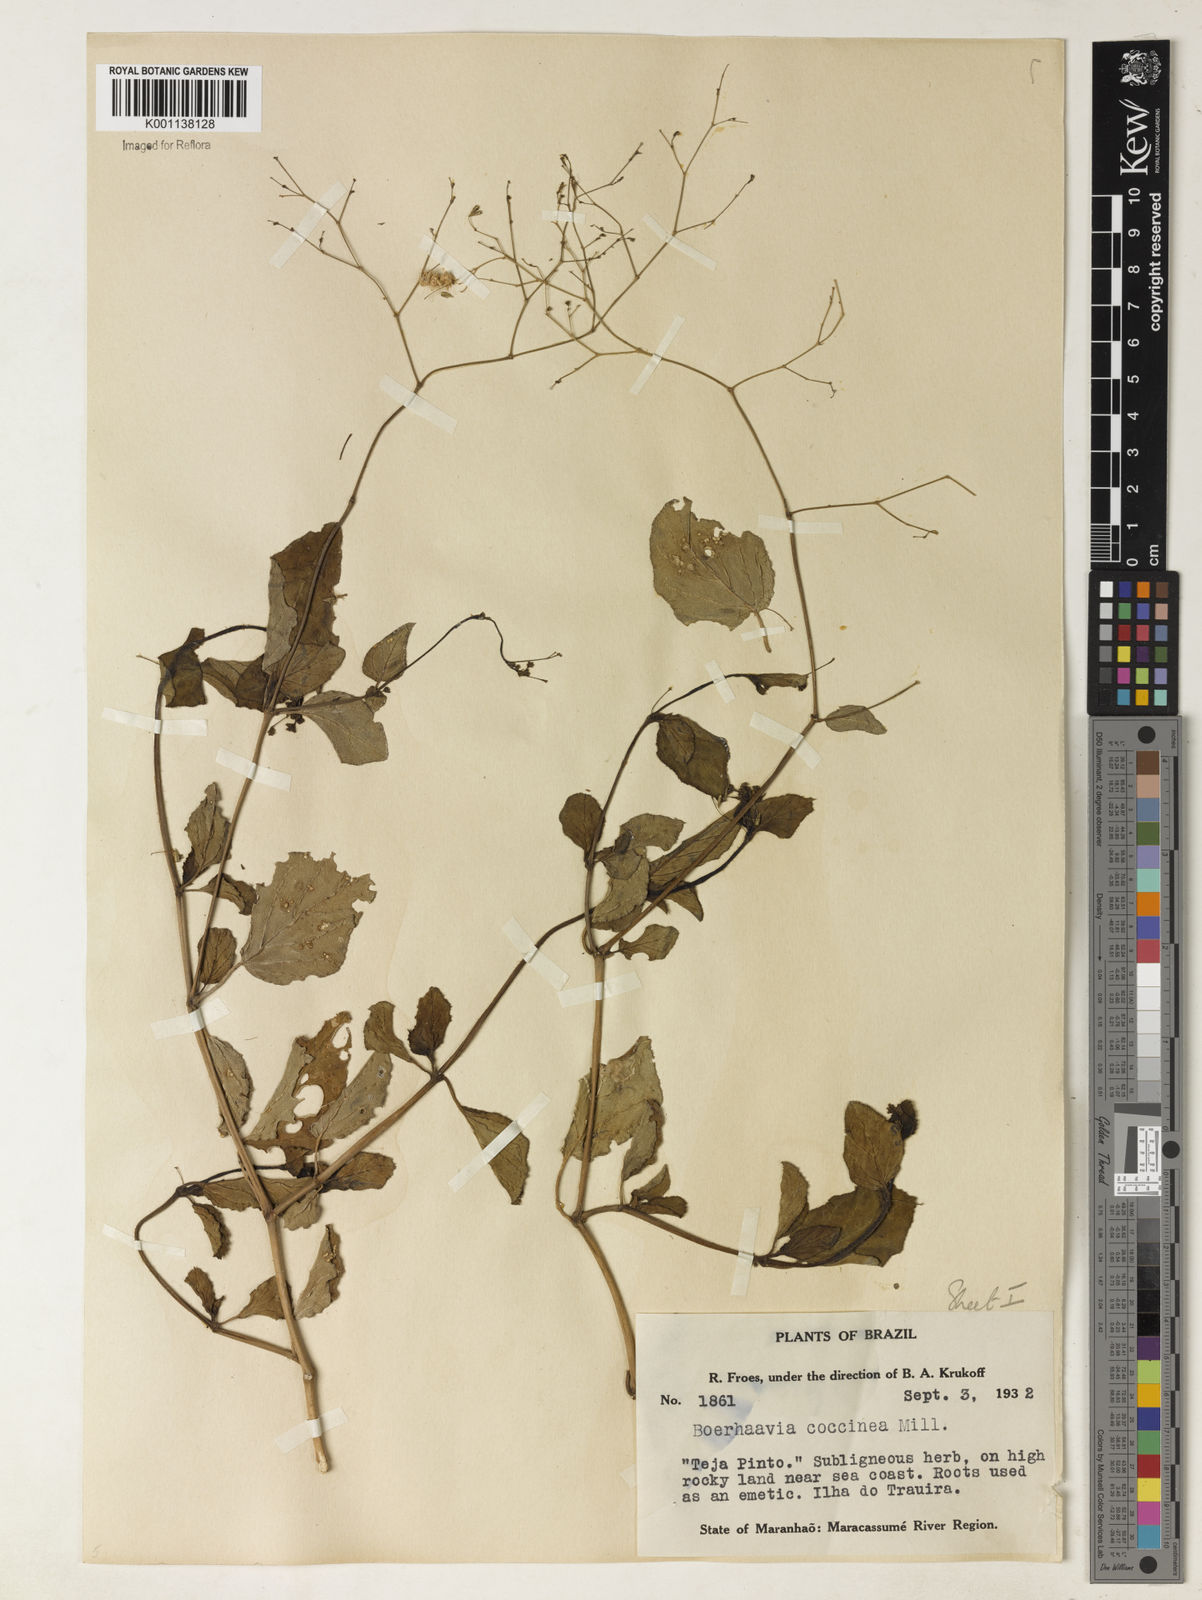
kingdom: Plantae
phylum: Tracheophyta
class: Magnoliopsida
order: Caryophyllales
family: Nyctaginaceae
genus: Boerhavia
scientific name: Boerhavia diffusa
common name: Red spiderling
